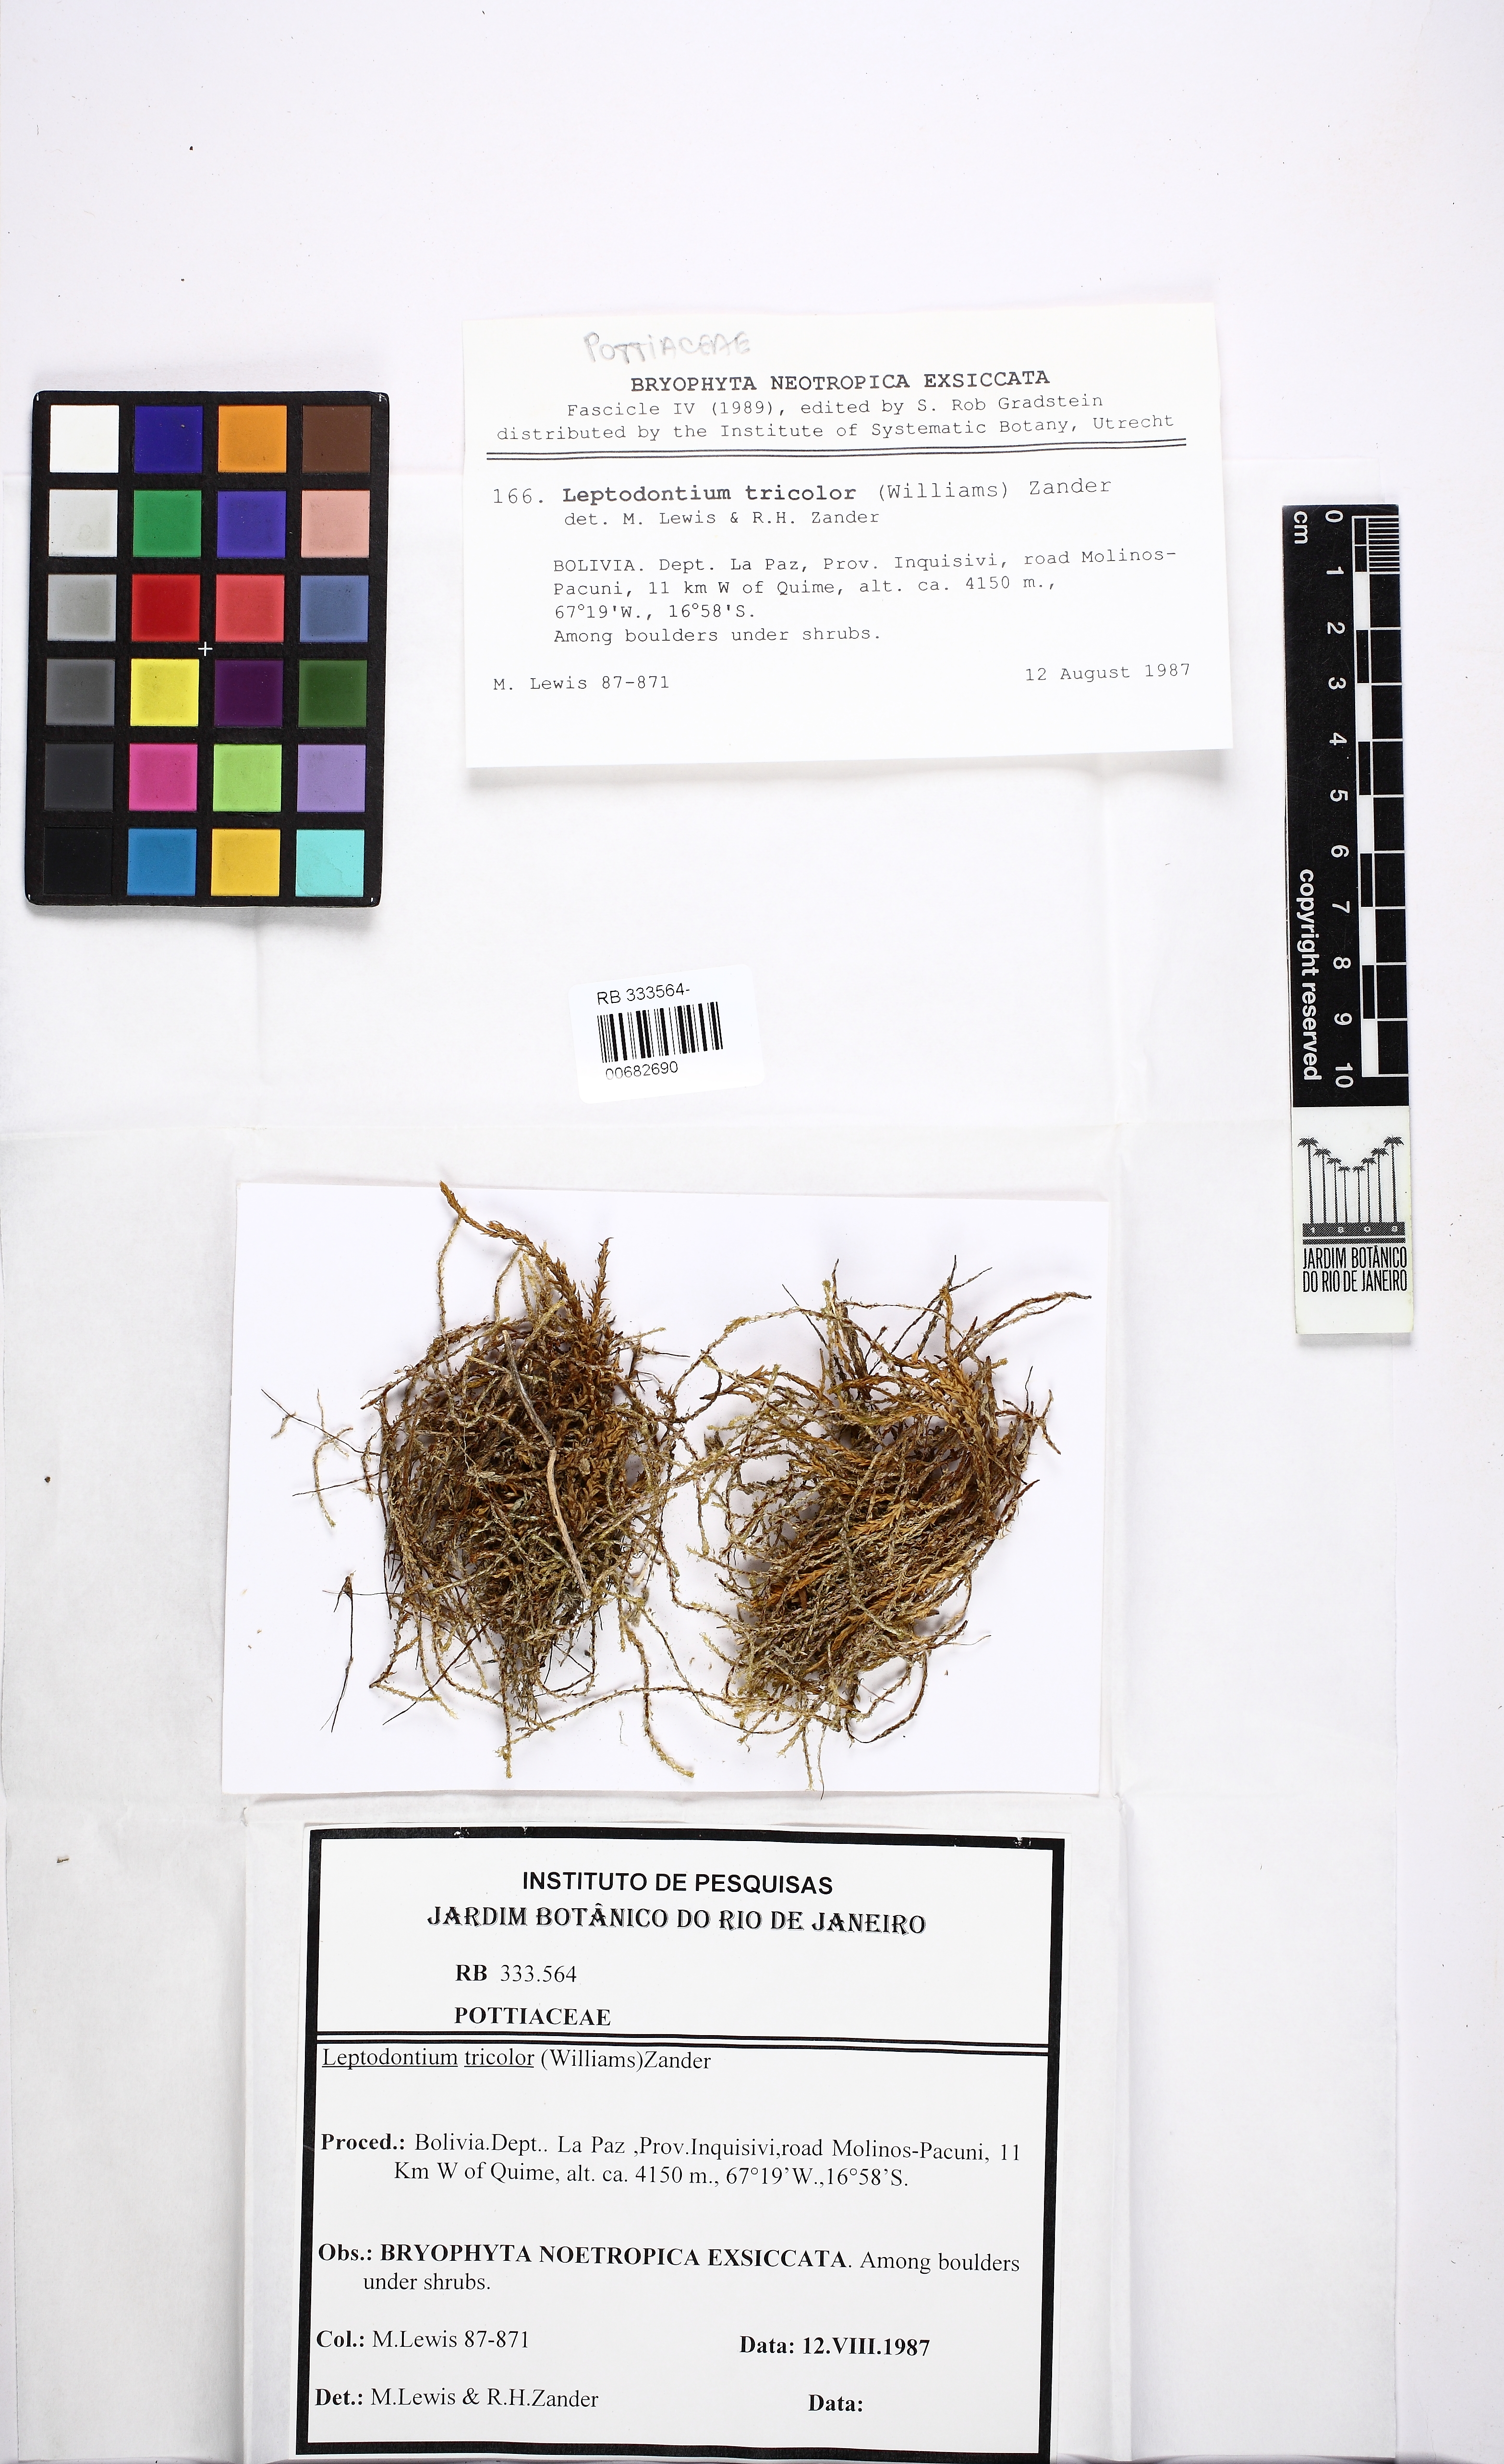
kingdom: Plantae
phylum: Bryophyta
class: Bryopsida
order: Pottiales
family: Pottiaceae
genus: Leptodontium
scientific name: Leptodontium tricolor
